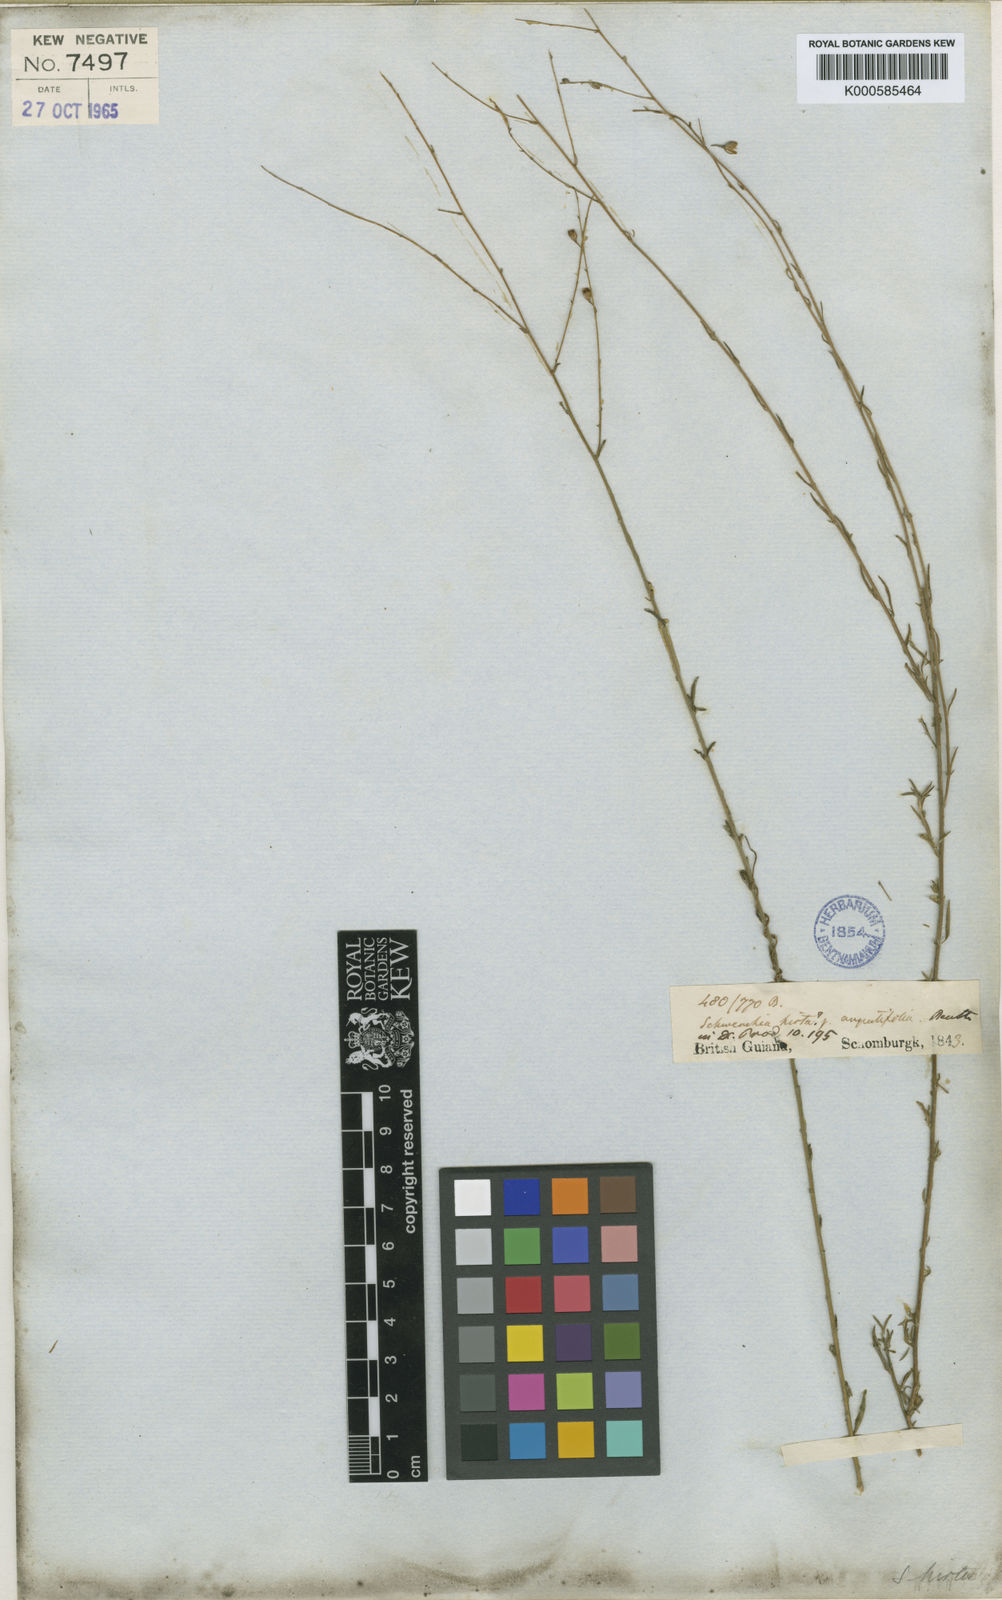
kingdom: Plantae
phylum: Tracheophyta
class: Magnoliopsida
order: Solanales
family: Solanaceae
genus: Schwenckia
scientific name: Schwenckia americana
